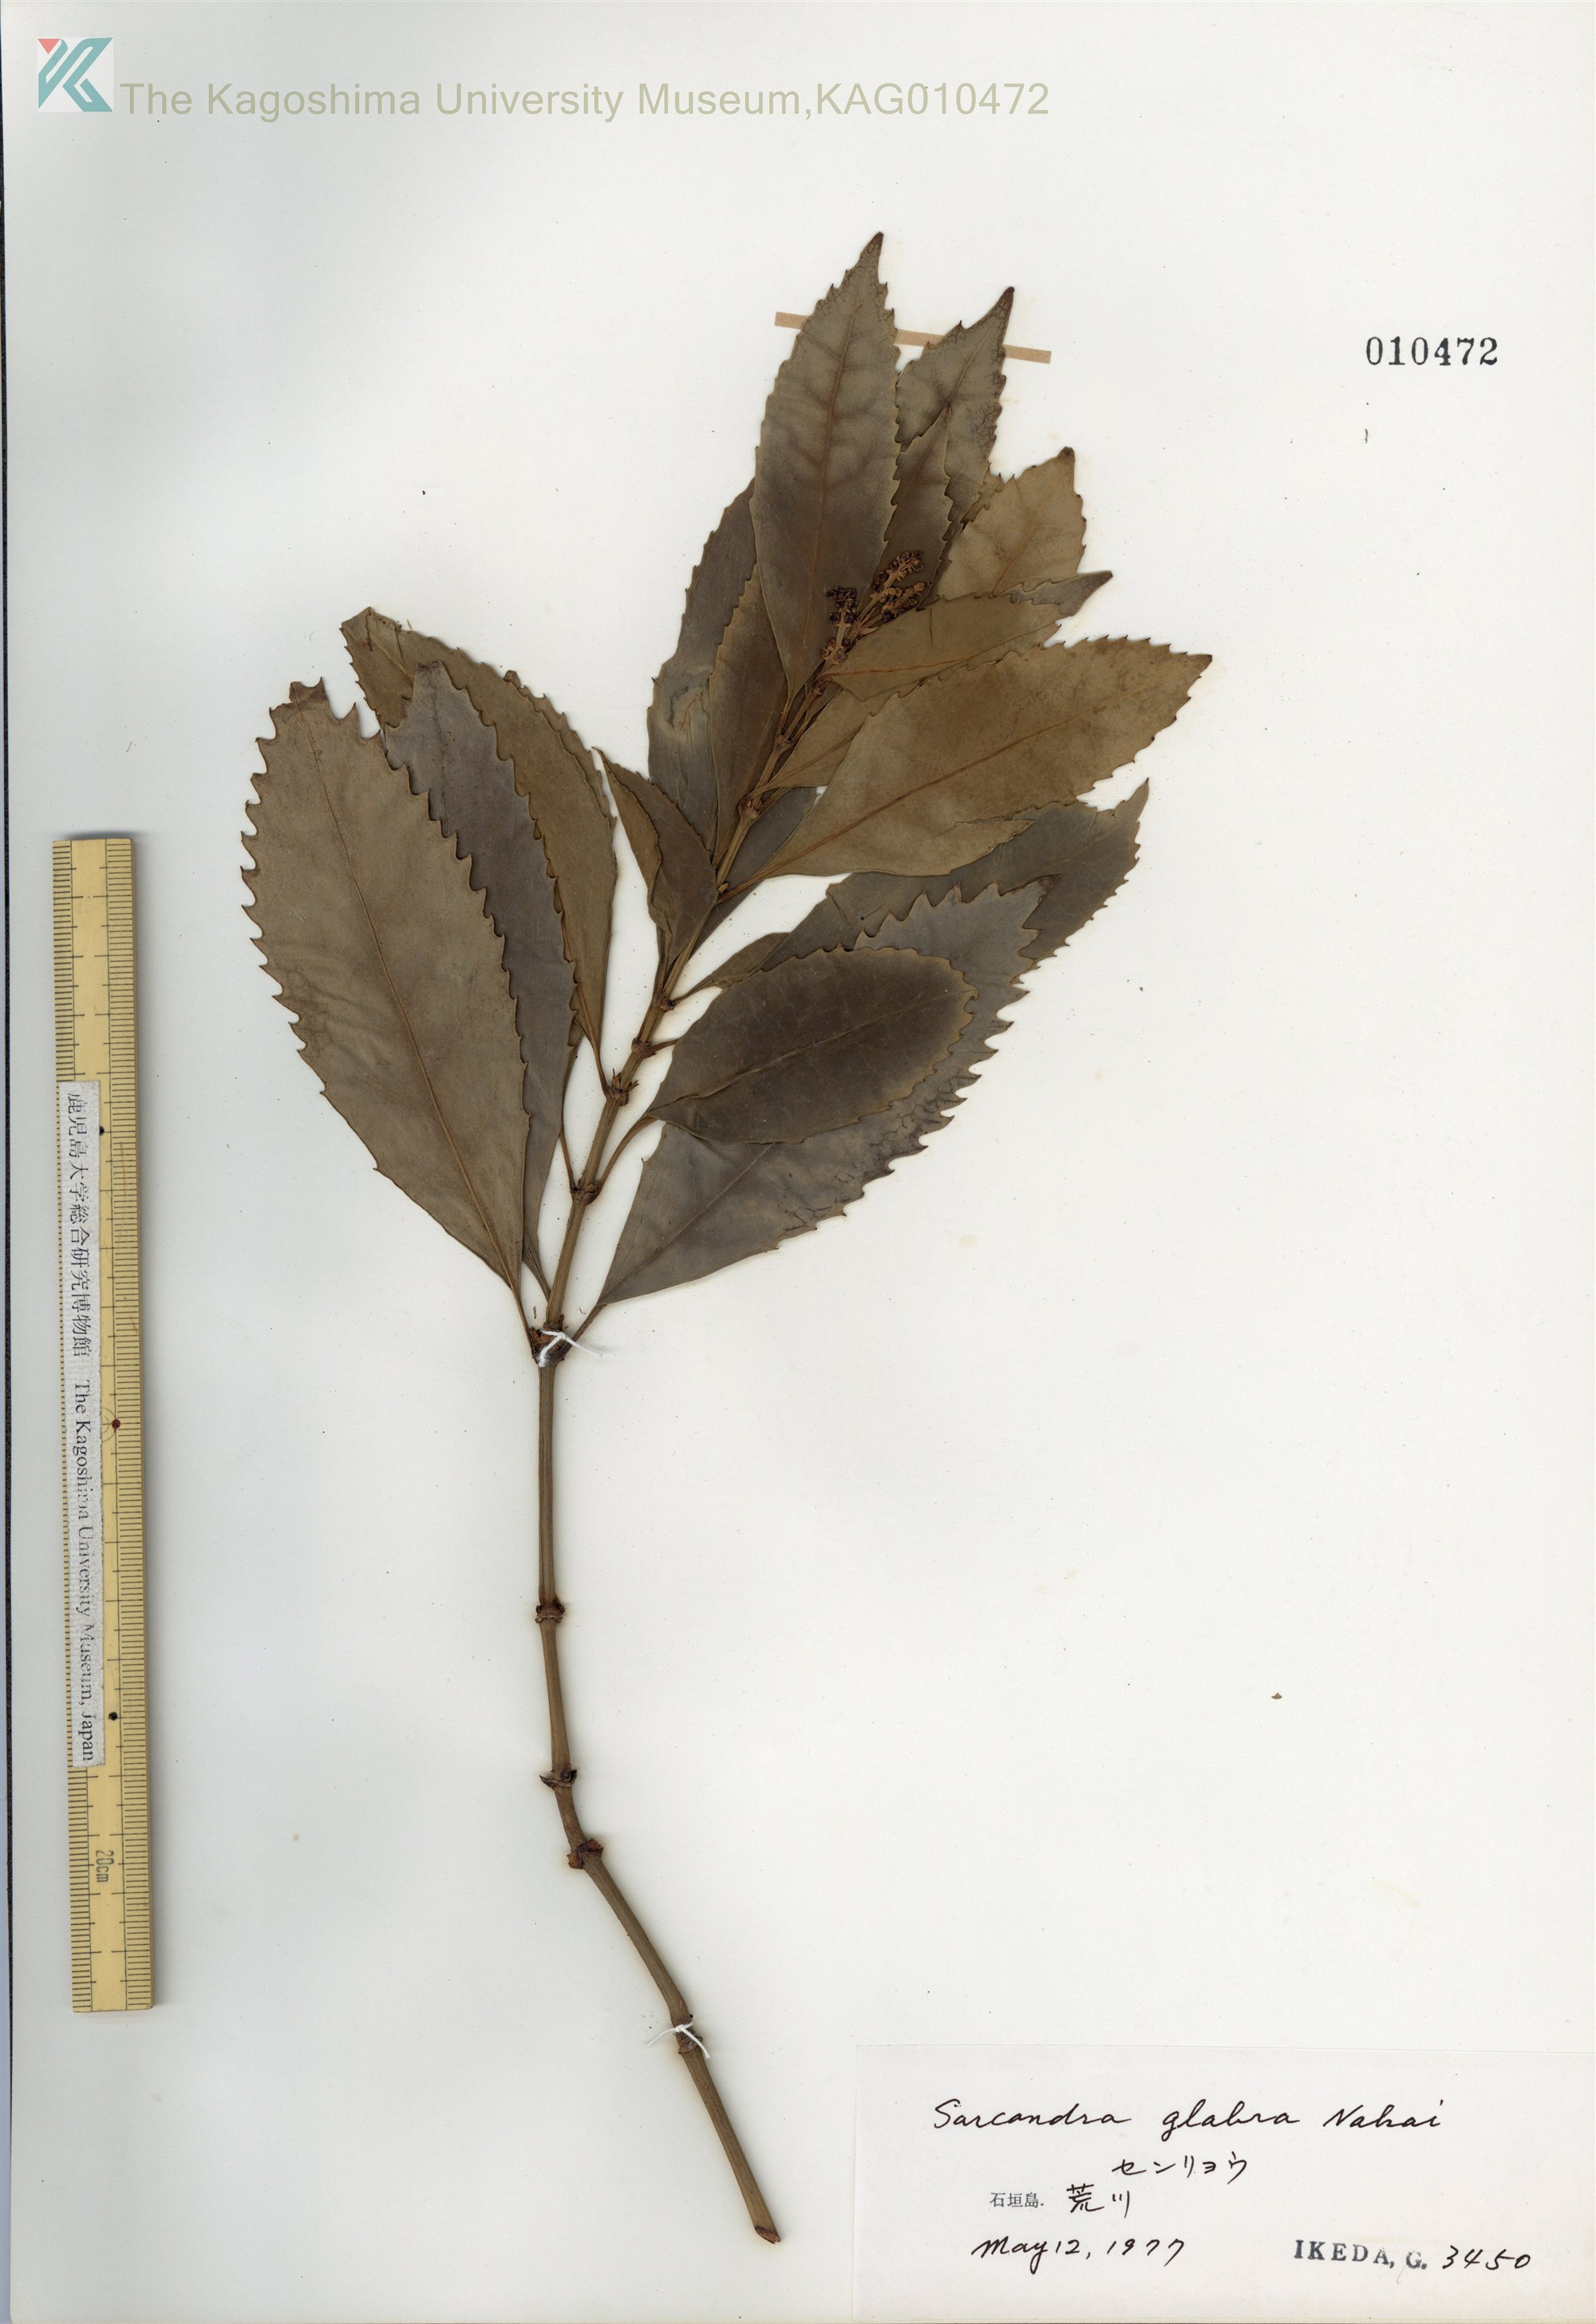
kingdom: Plantae
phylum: Tracheophyta
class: Magnoliopsida
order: Chloranthales
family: Chloranthaceae
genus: Sarcandra
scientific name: Sarcandra glabra
